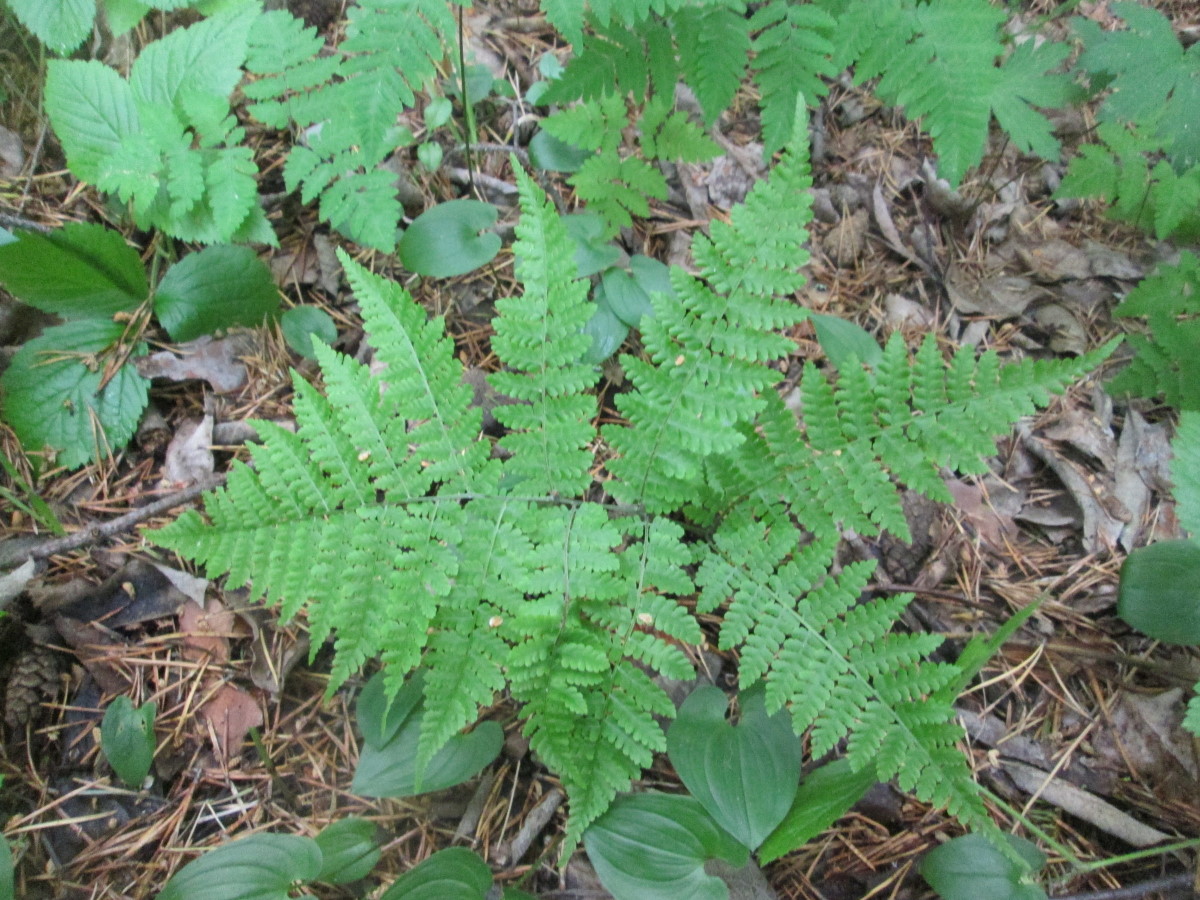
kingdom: Plantae
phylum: Tracheophyta
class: Polypodiopsida
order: Polypodiales
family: Athyriaceae
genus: Diplazium
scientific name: Diplazium sibiricum
